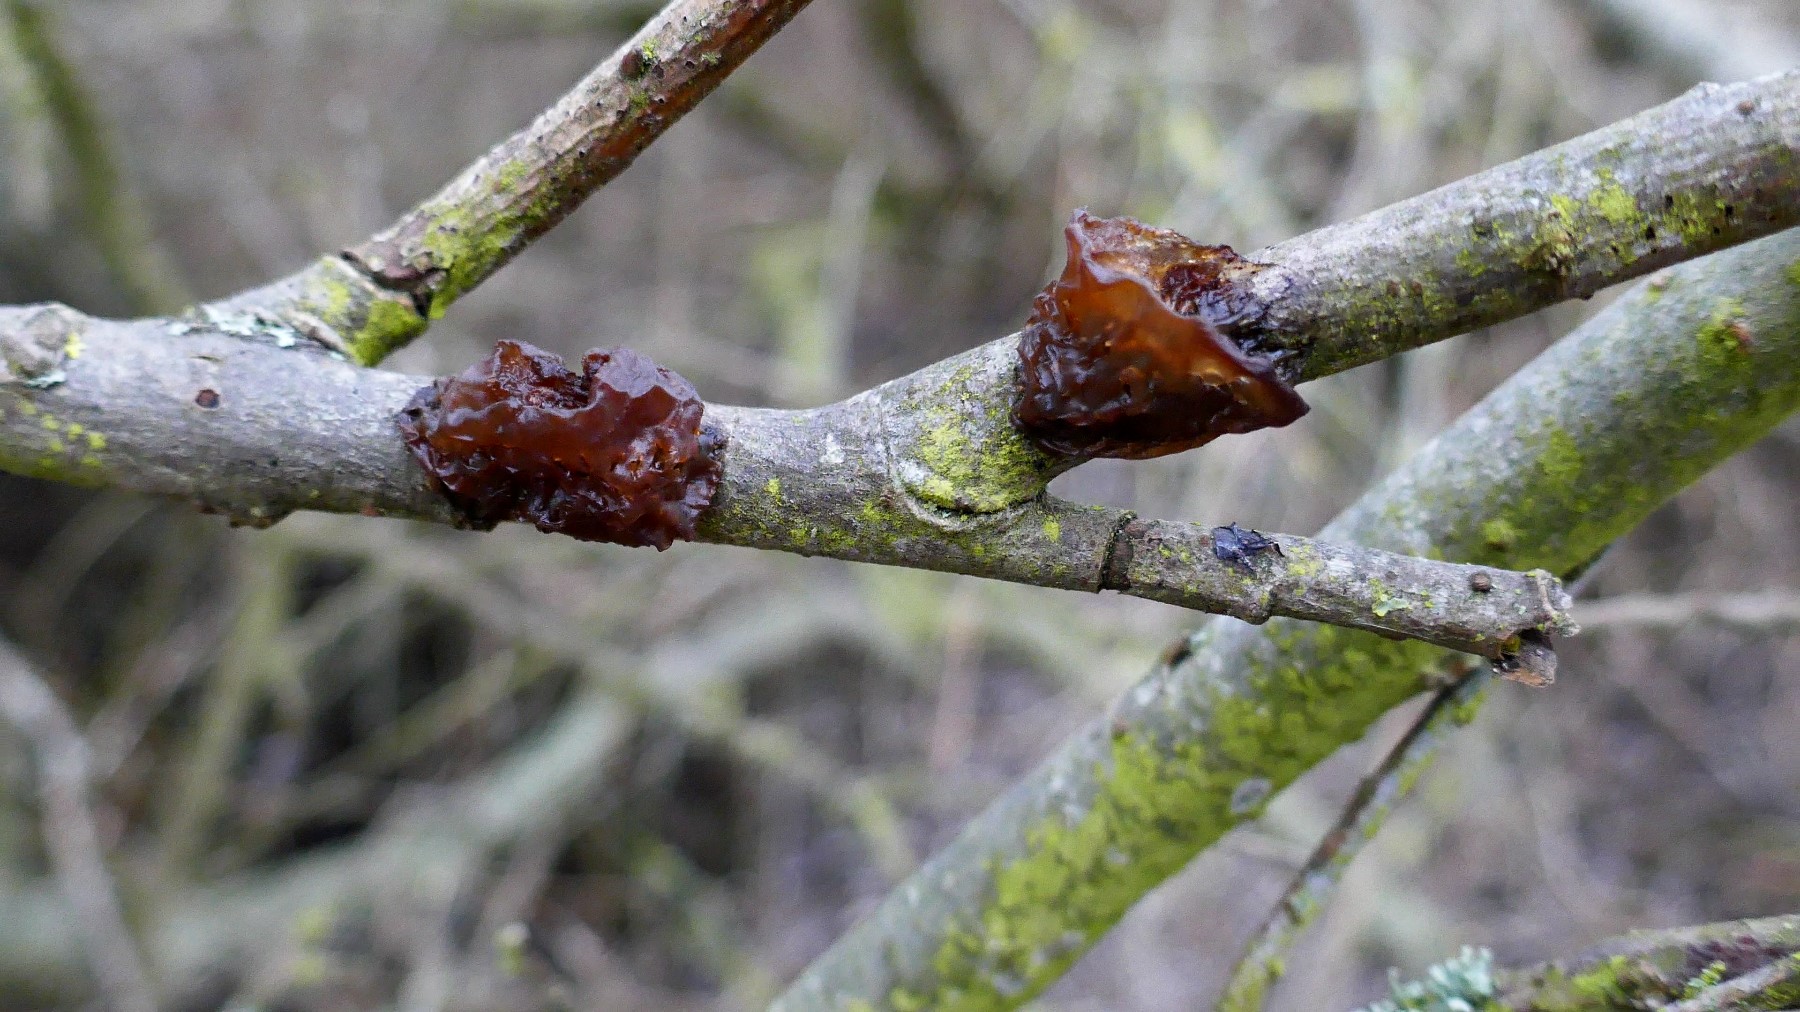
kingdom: Fungi
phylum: Basidiomycota
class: Agaricomycetes
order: Auriculariales
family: Auriculariaceae
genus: Exidia
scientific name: Exidia recisa
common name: pile-bævretop
